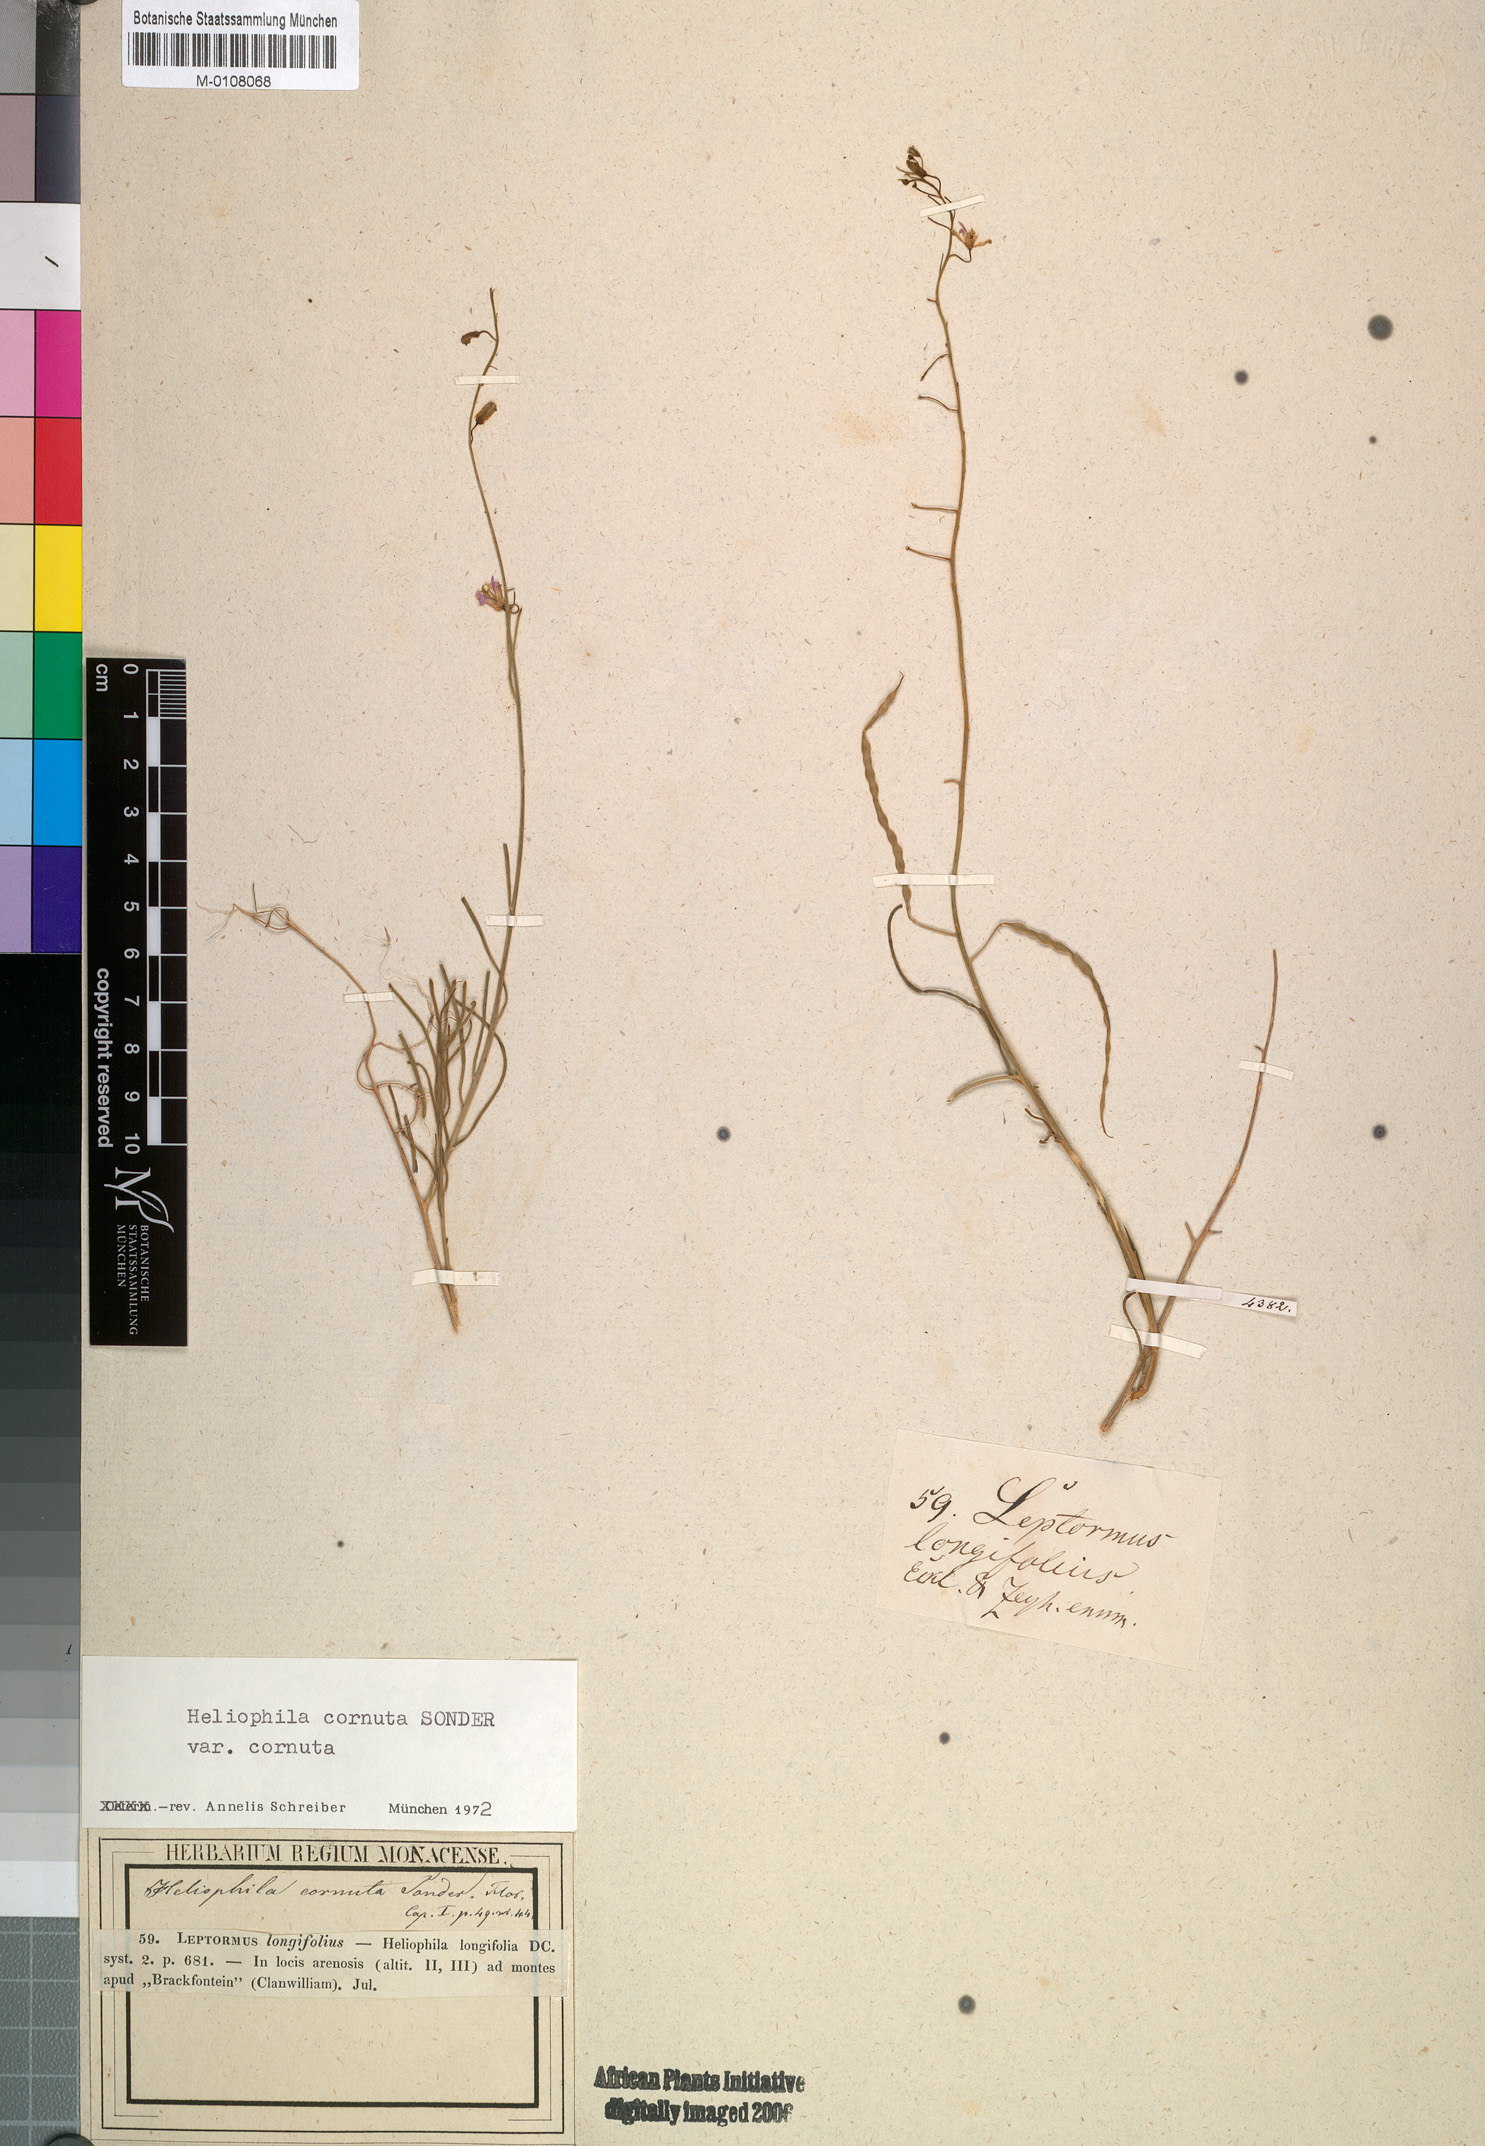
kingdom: Plantae
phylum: Tracheophyta
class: Magnoliopsida
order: Brassicales
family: Brassicaceae
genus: Heliophila
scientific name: Heliophila cornuta
